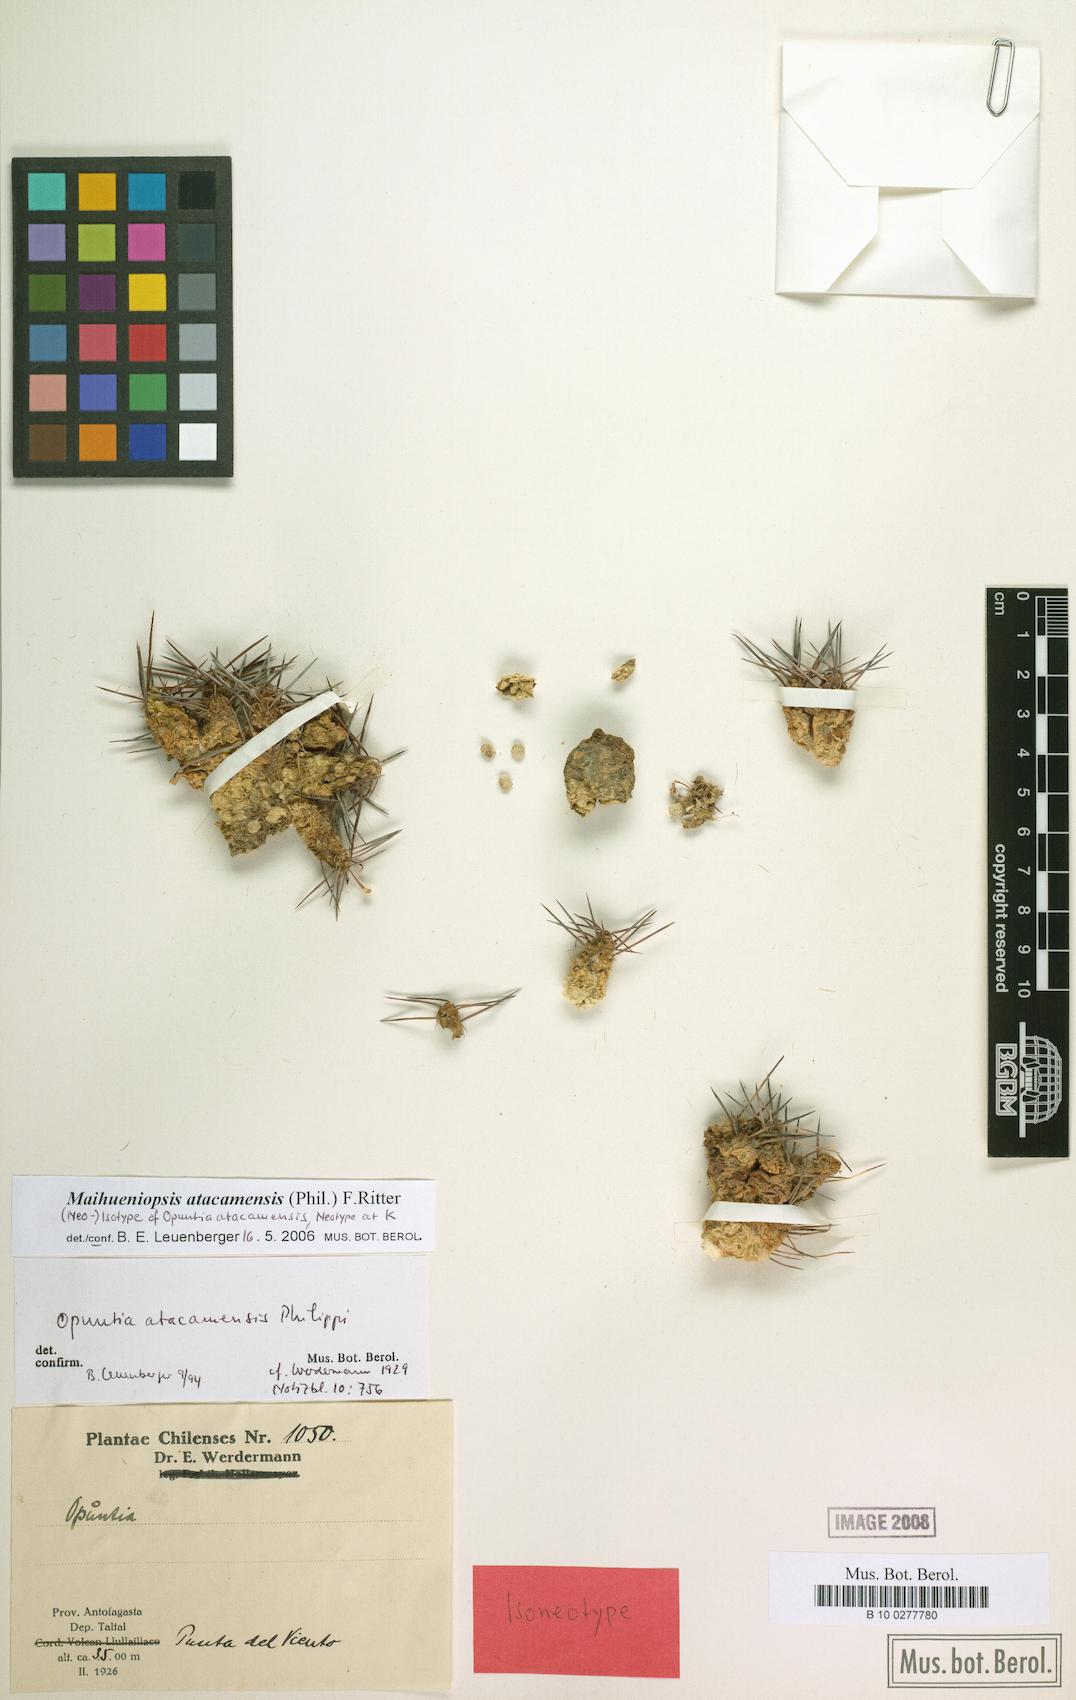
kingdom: Plantae
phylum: Tracheophyta
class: Magnoliopsida
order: Caryophyllales
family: Cactaceae
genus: Maihueniopsis
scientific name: Maihueniopsis atacamensis
